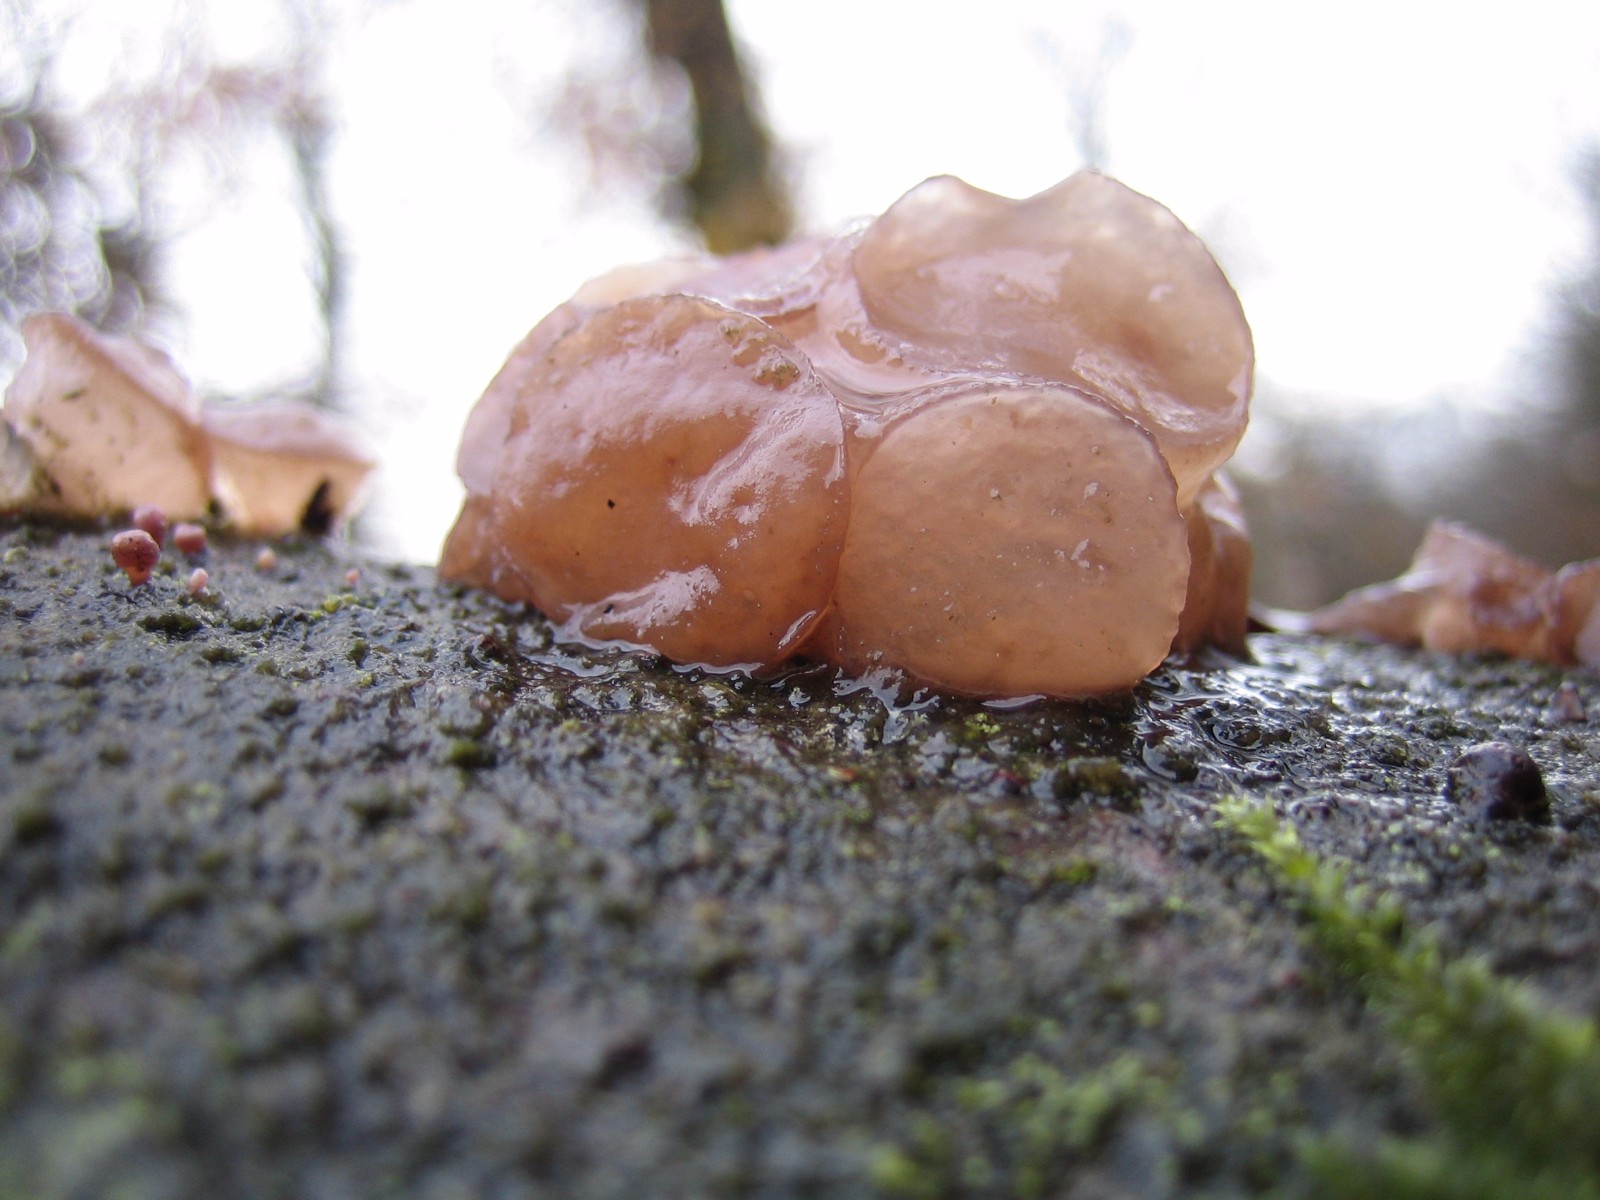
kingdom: Fungi
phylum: Ascomycota
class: Leotiomycetes
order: Helotiales
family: Gelatinodiscaceae
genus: Neobulgaria
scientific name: Neobulgaria pura
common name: bleg bævreskive
